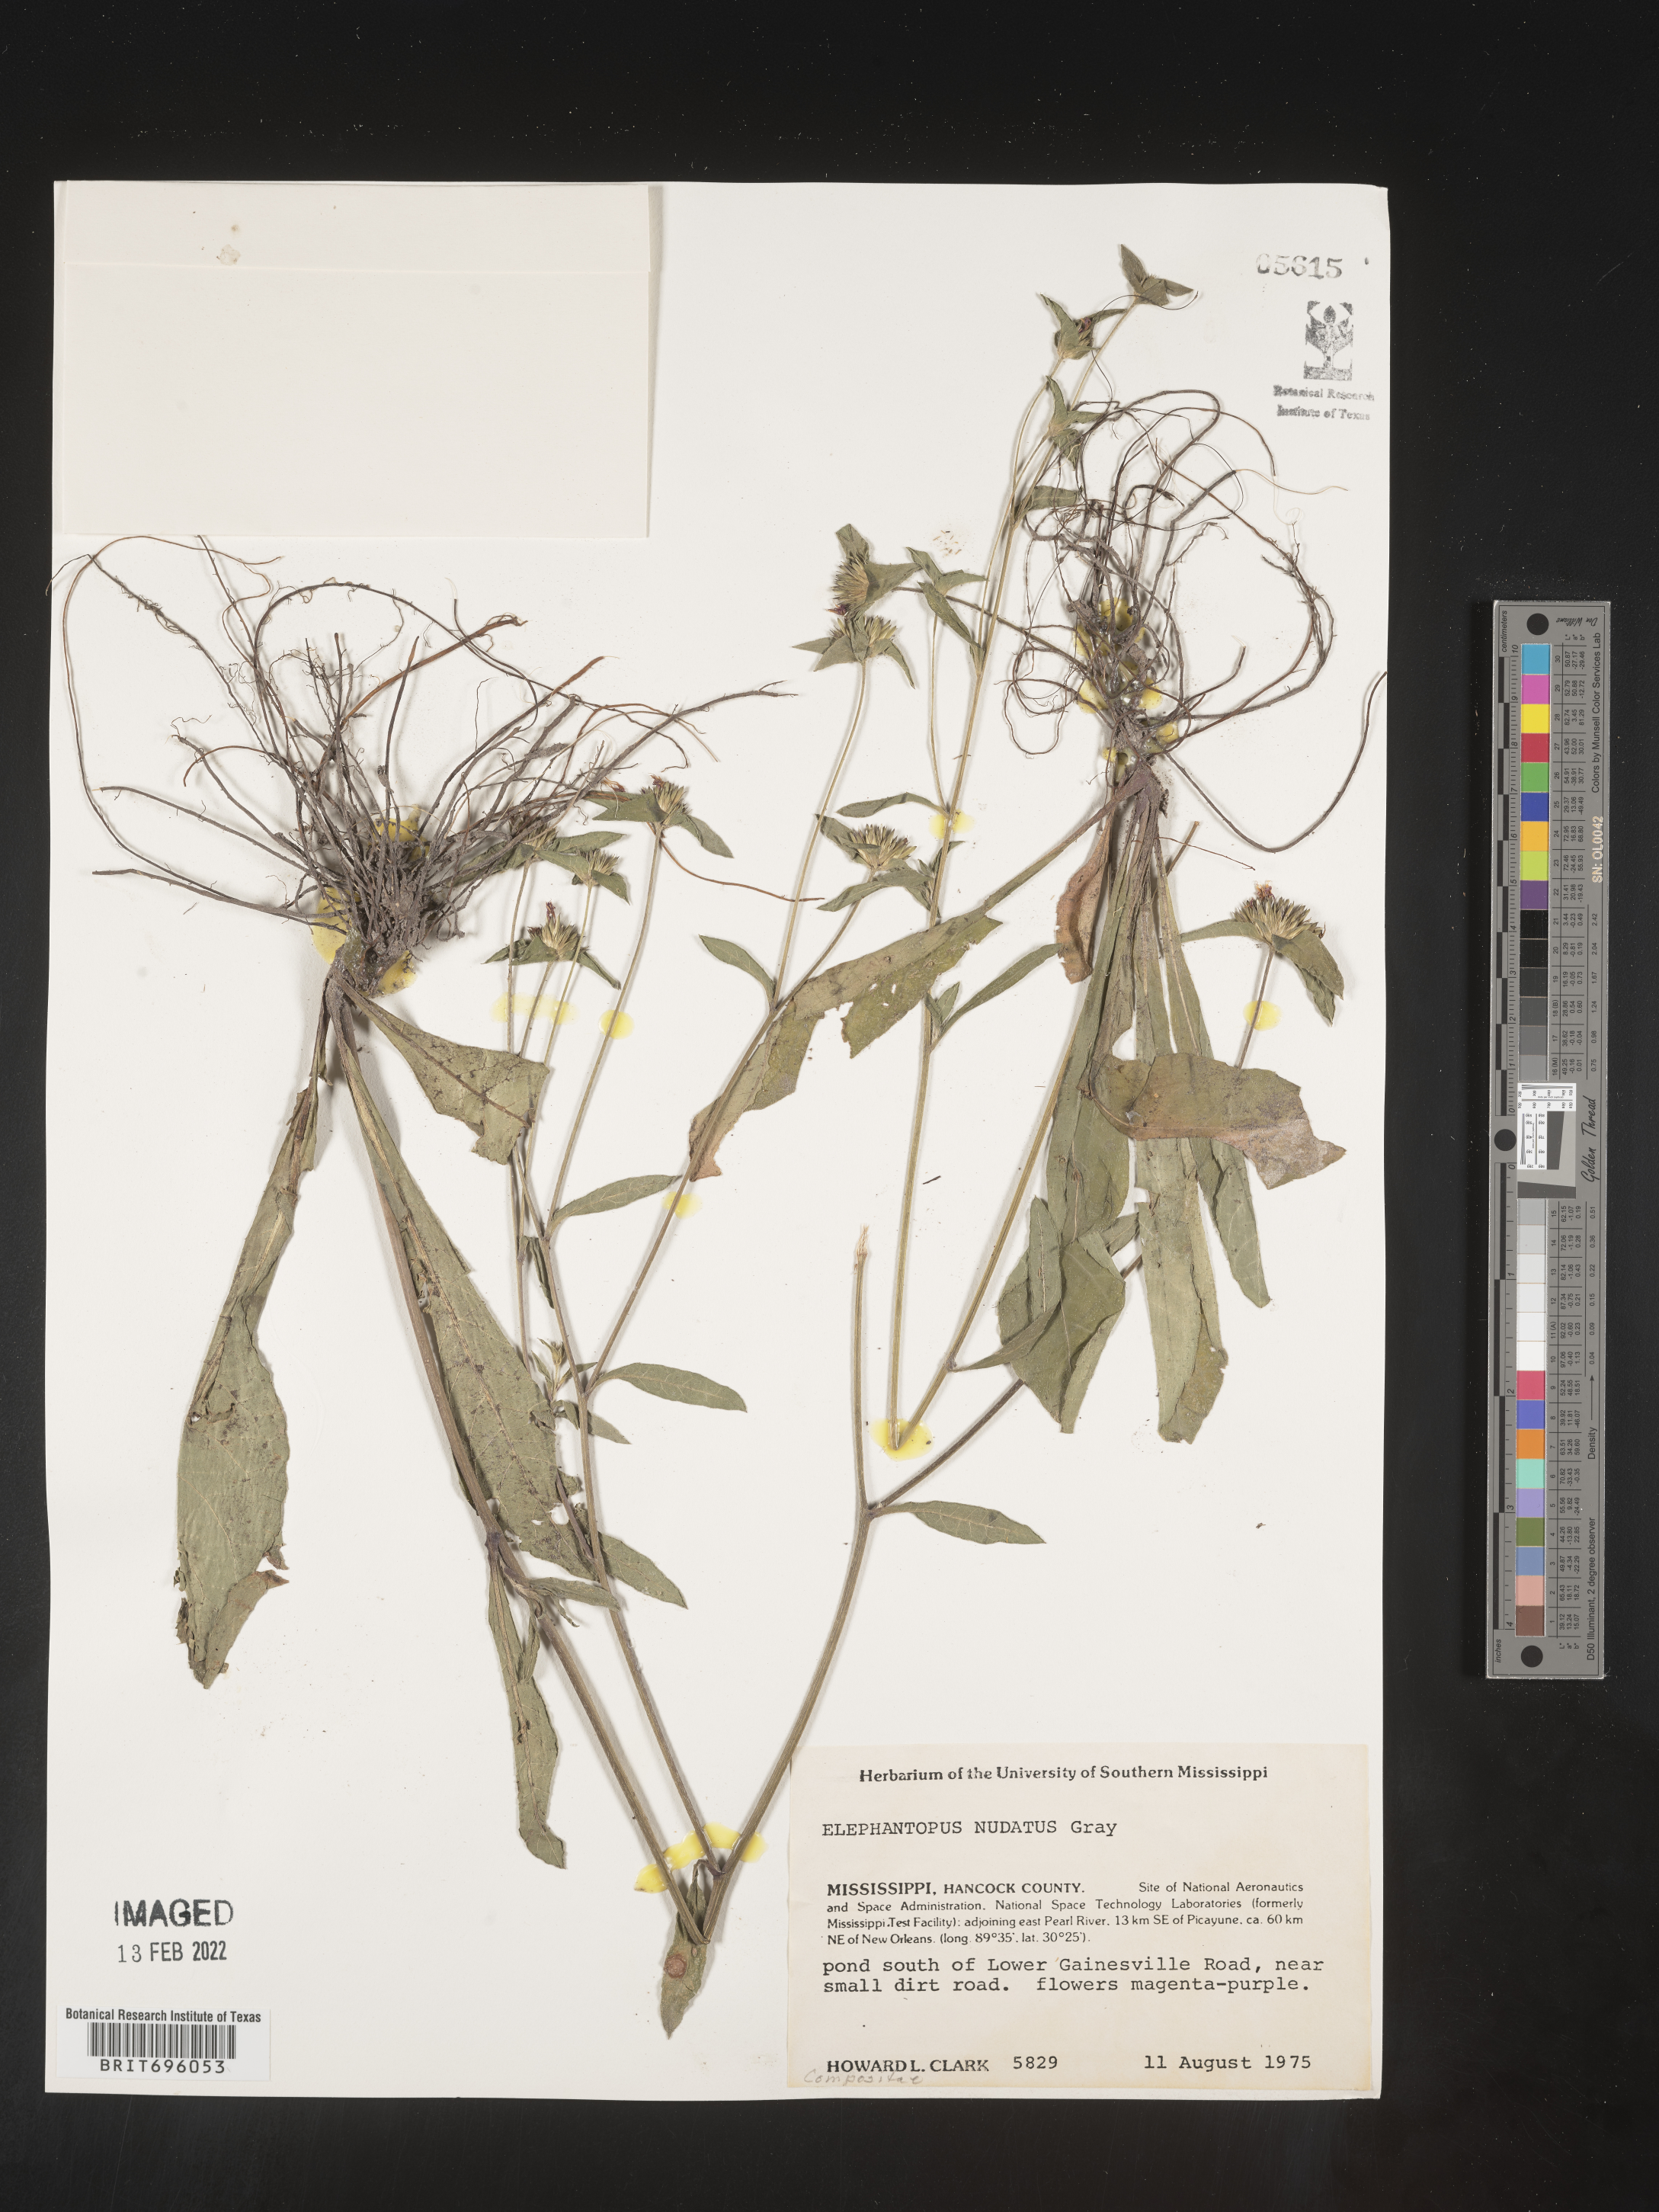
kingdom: Plantae
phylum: Tracheophyta
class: Magnoliopsida
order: Asterales
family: Asteraceae
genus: Elephantopus
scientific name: Elephantopus nudatus
